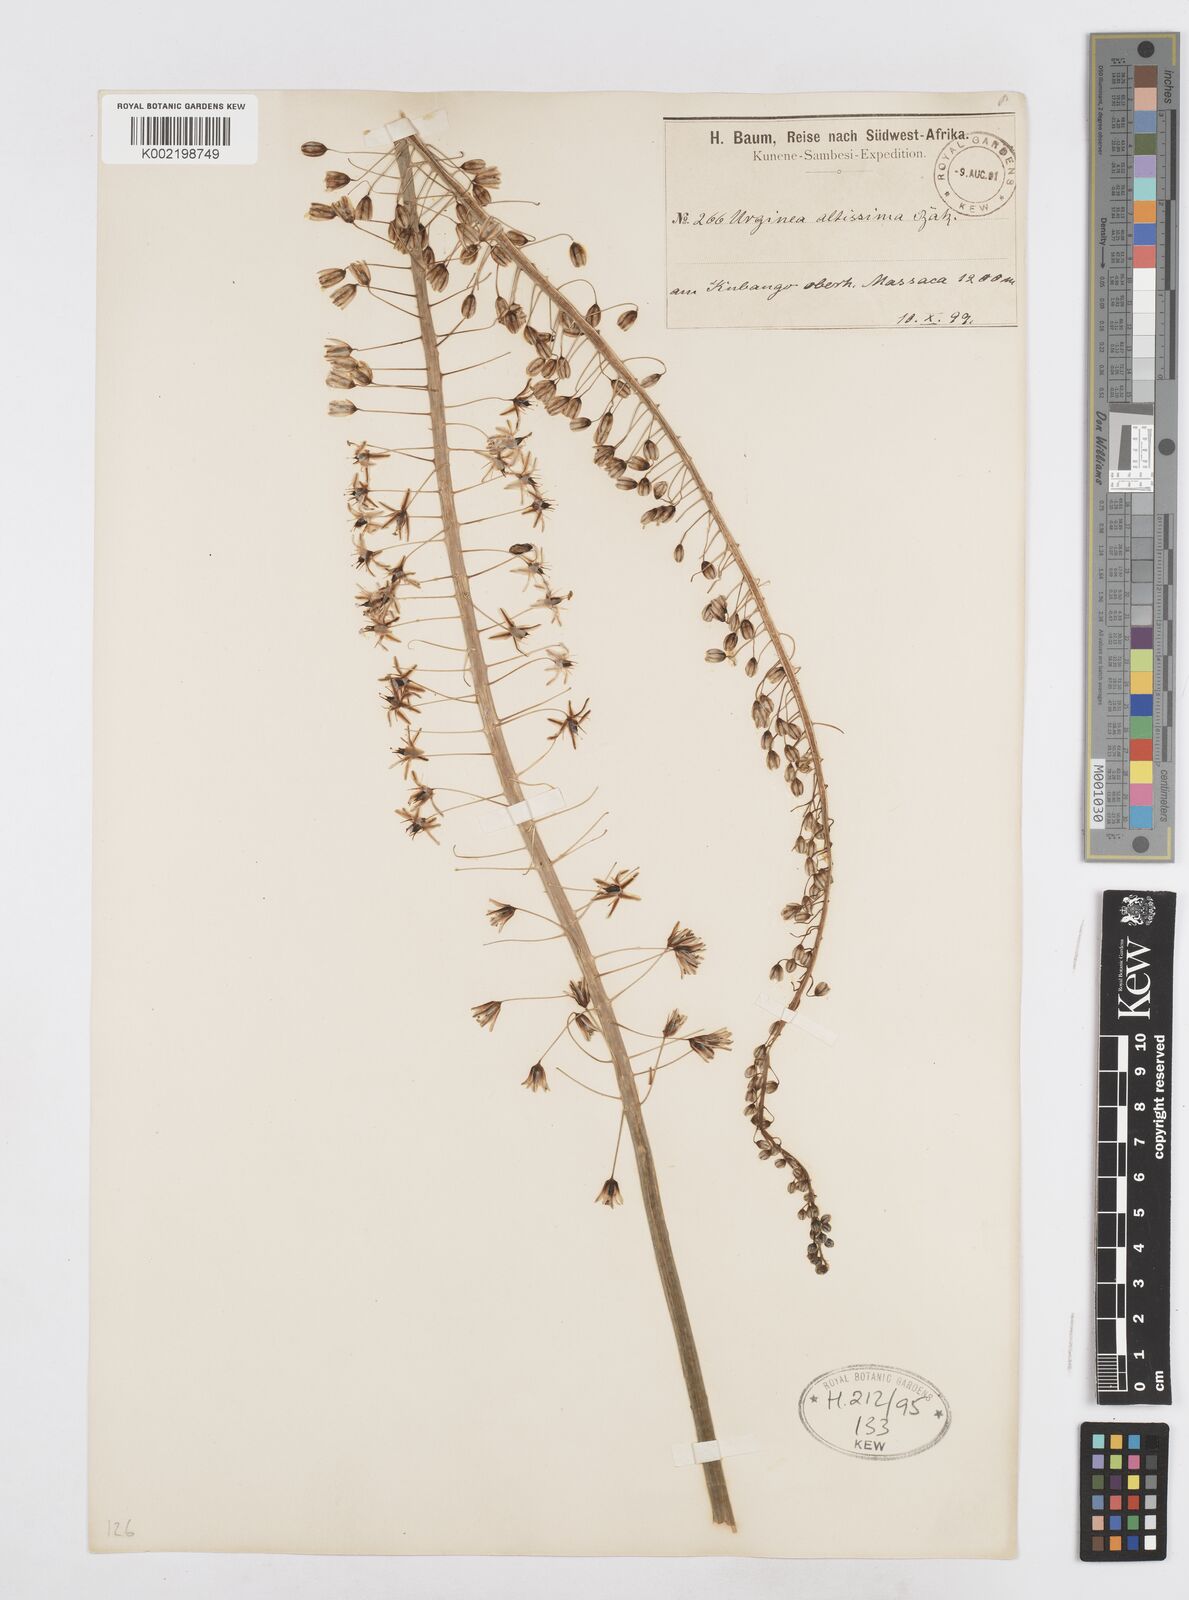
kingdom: Plantae
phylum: Tracheophyta
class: Liliopsida
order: Asparagales
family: Asparagaceae
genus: Drimia
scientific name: Drimia altissima
